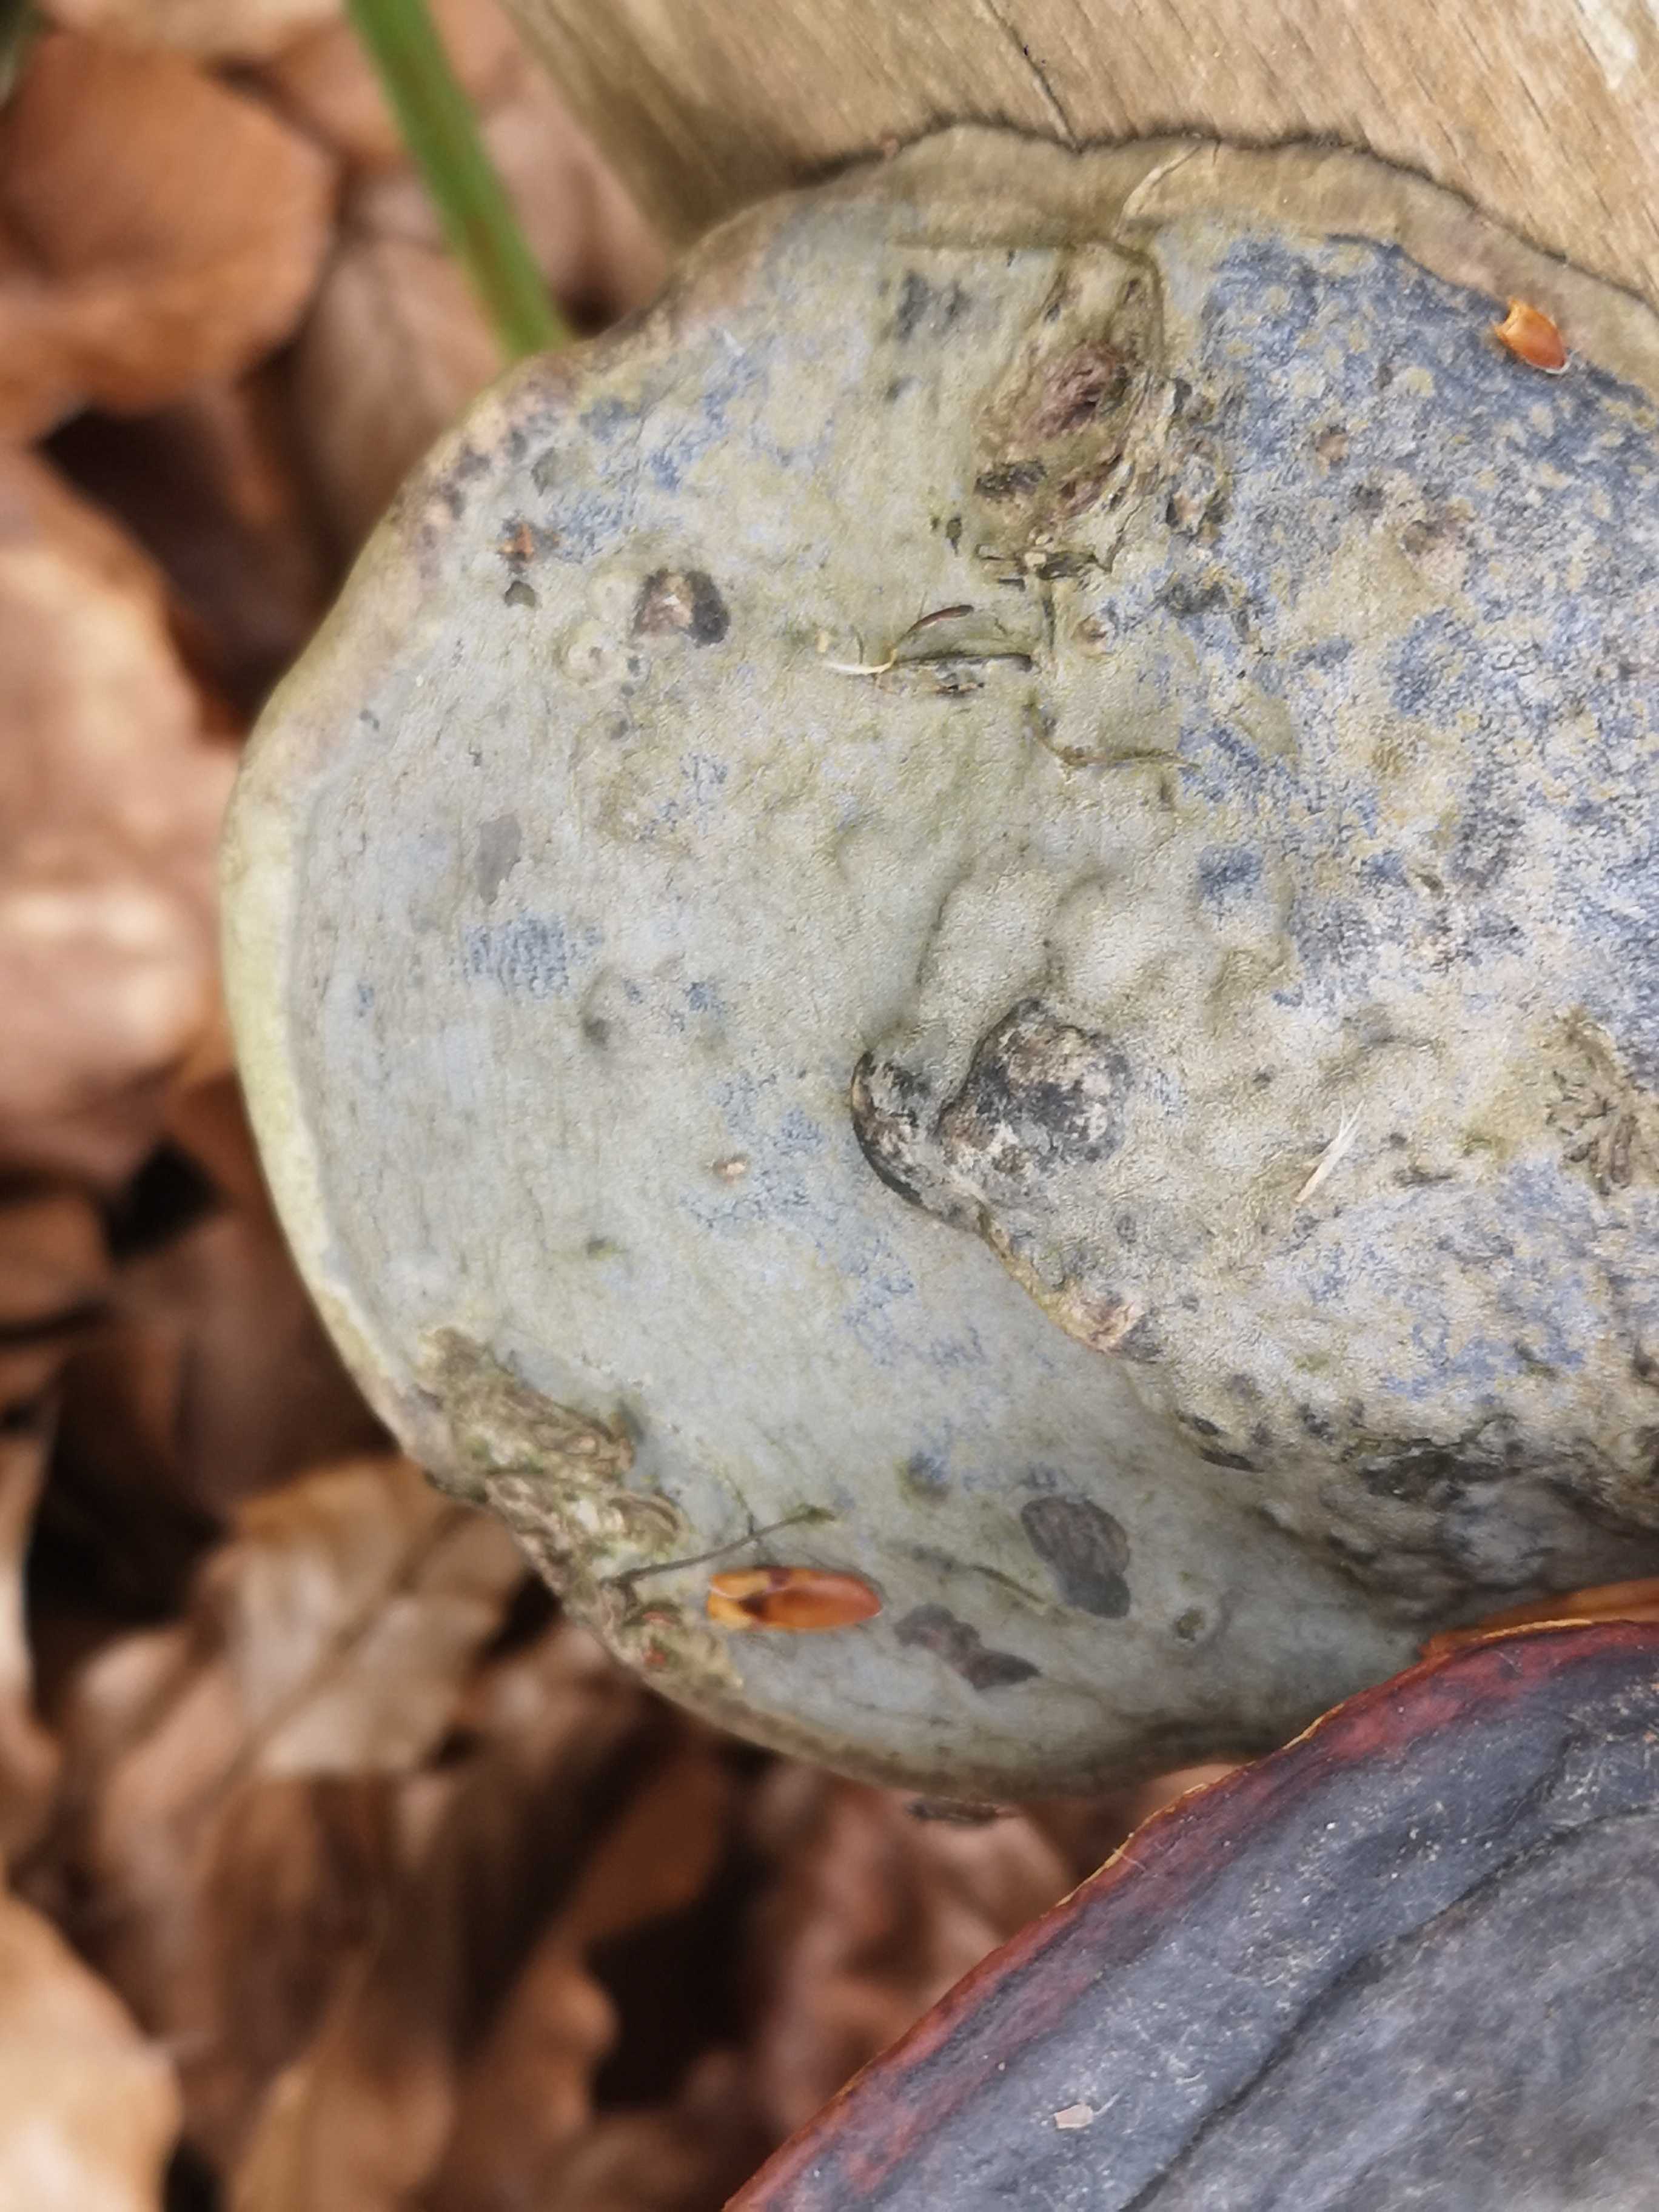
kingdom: Fungi
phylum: Basidiomycota
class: Agaricomycetes
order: Polyporales
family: Fomitopsidaceae
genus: Fomitopsis
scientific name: Fomitopsis pinicola
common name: randbæltet hovporesvamp
